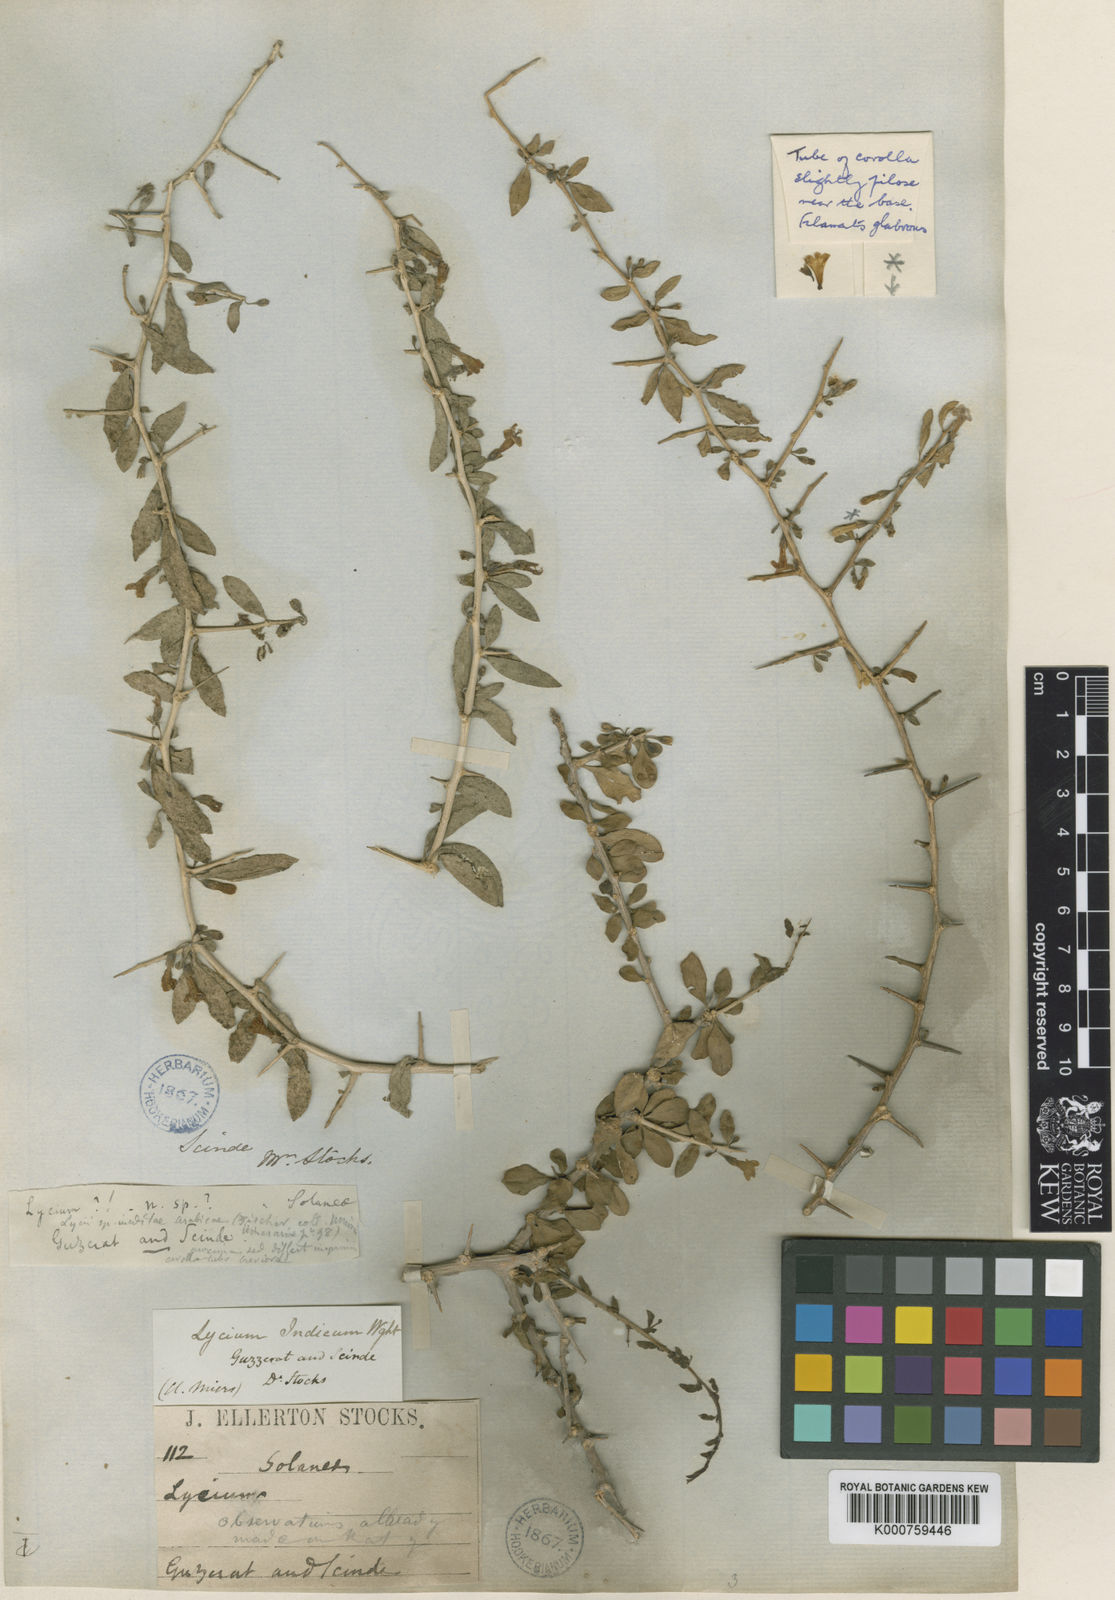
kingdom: Plantae
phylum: Tracheophyta
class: Magnoliopsida
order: Solanales
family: Solanaceae
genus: Lycium
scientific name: Lycium edgeworthii
